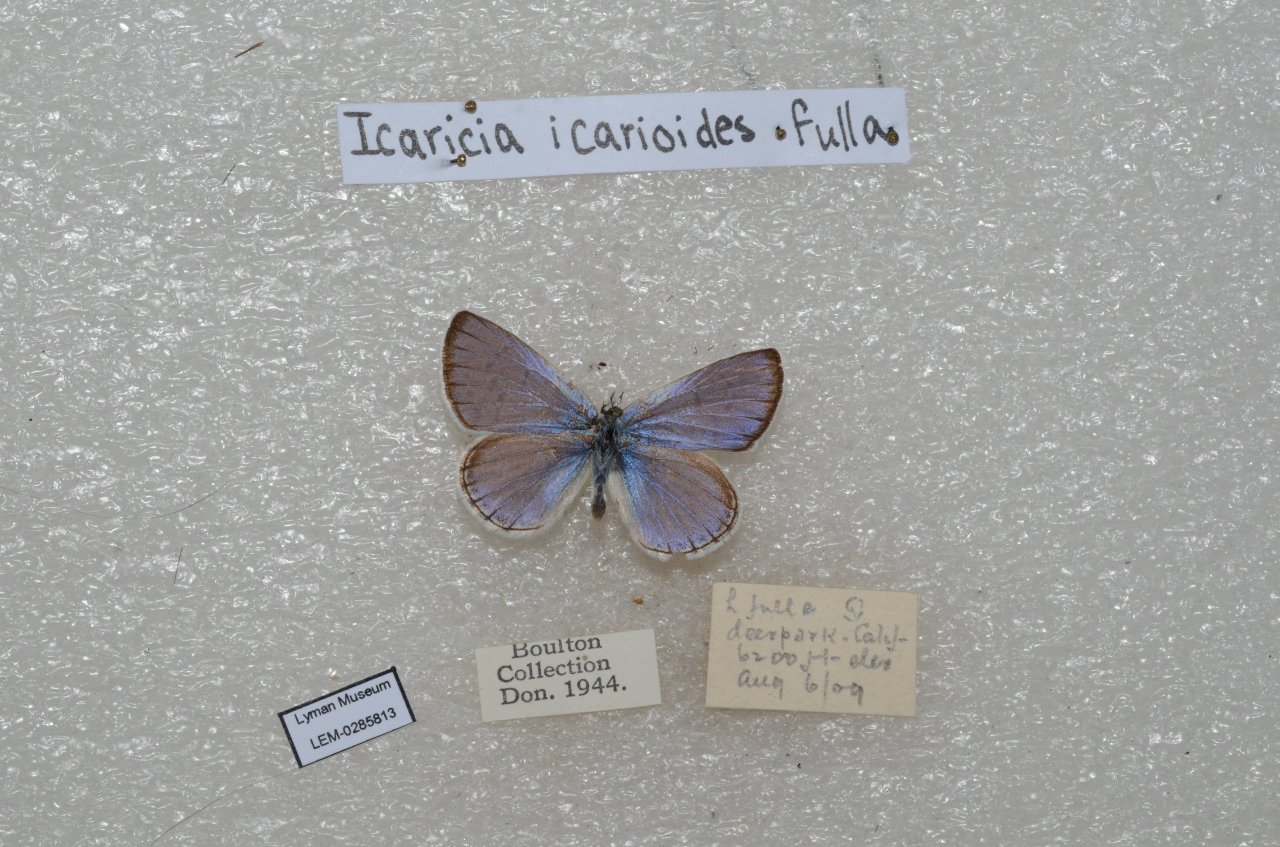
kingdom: Animalia
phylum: Arthropoda
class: Insecta
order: Lepidoptera
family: Lycaenidae
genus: Icaricia
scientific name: Icaricia icarioides
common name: Boisduval's Blue
